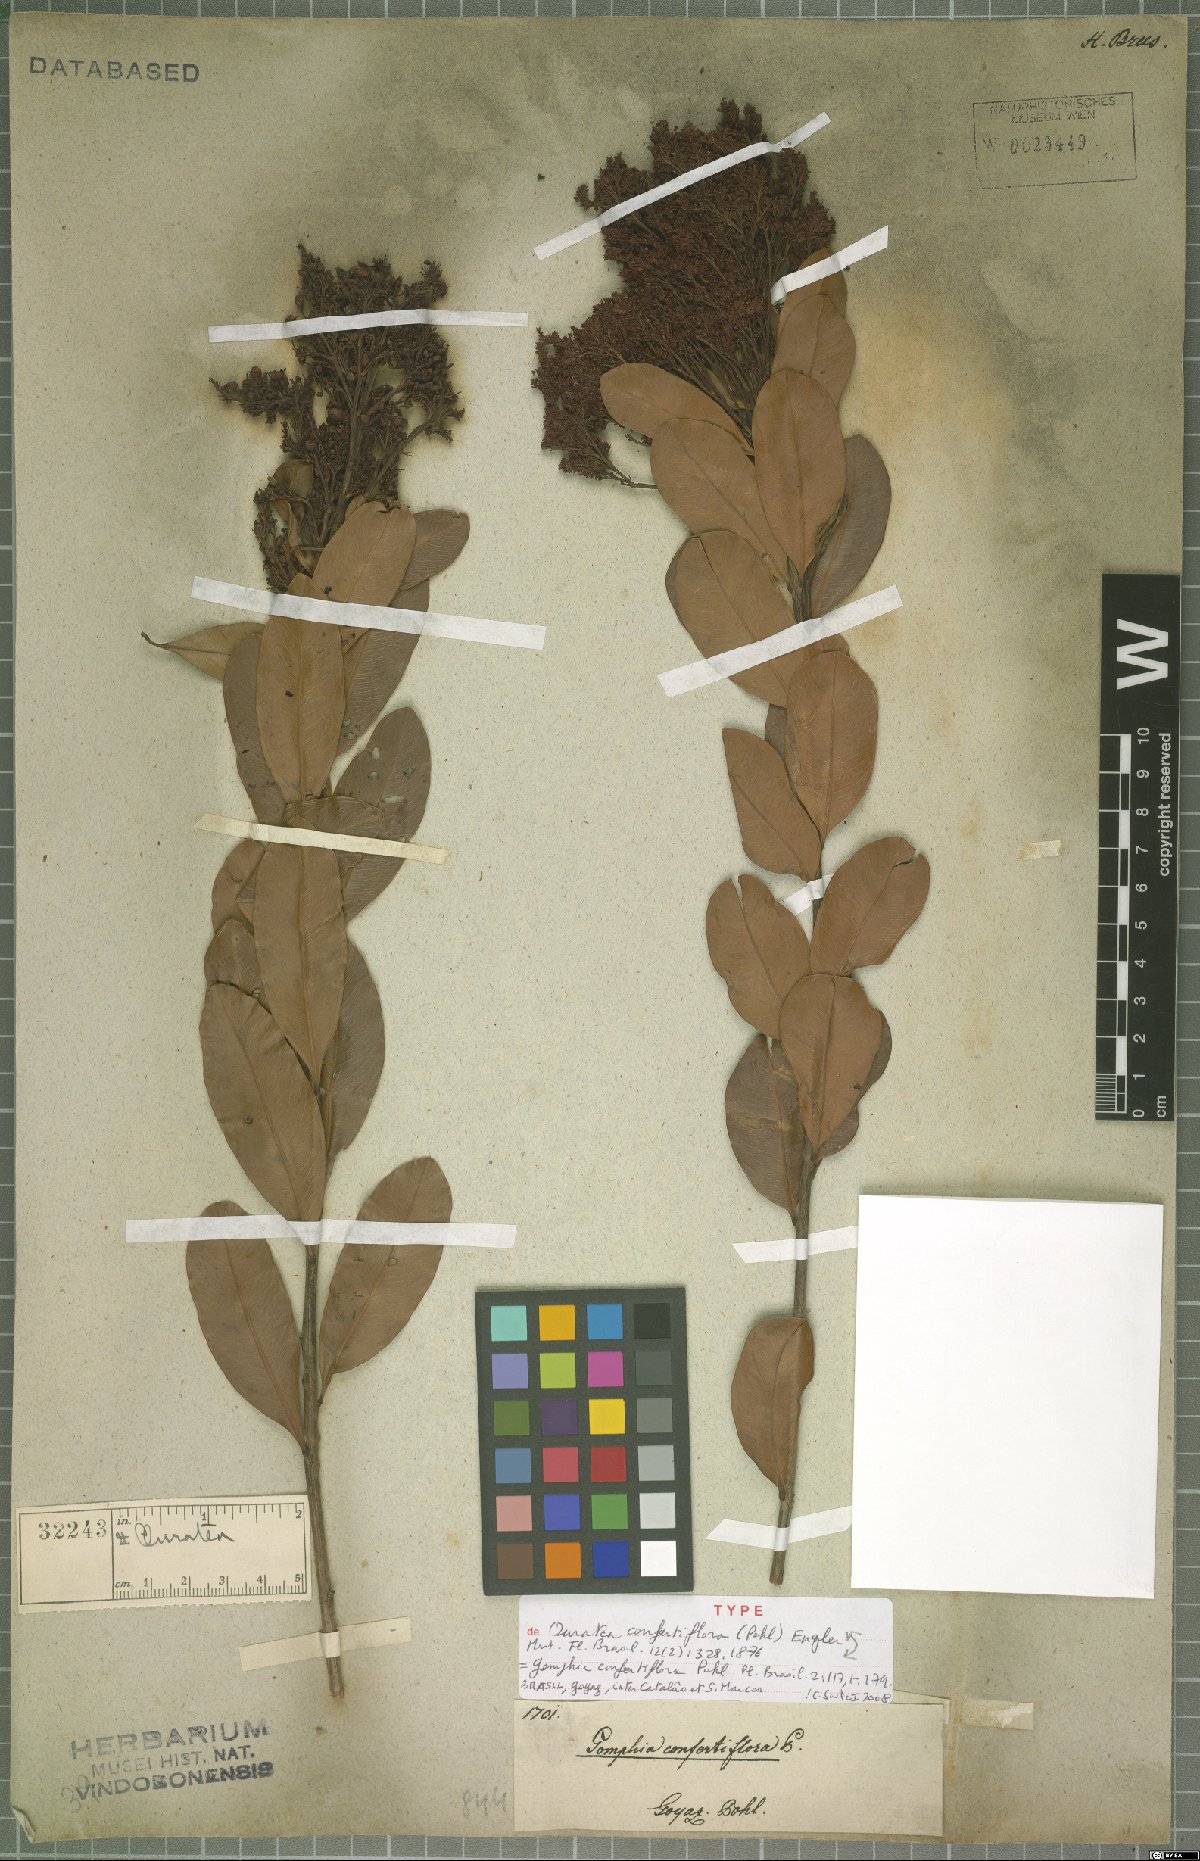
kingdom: Plantae
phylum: Tracheophyta
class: Magnoliopsida
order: Malpighiales
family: Ochnaceae
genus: Ouratea
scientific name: Ouratea confertiflora
